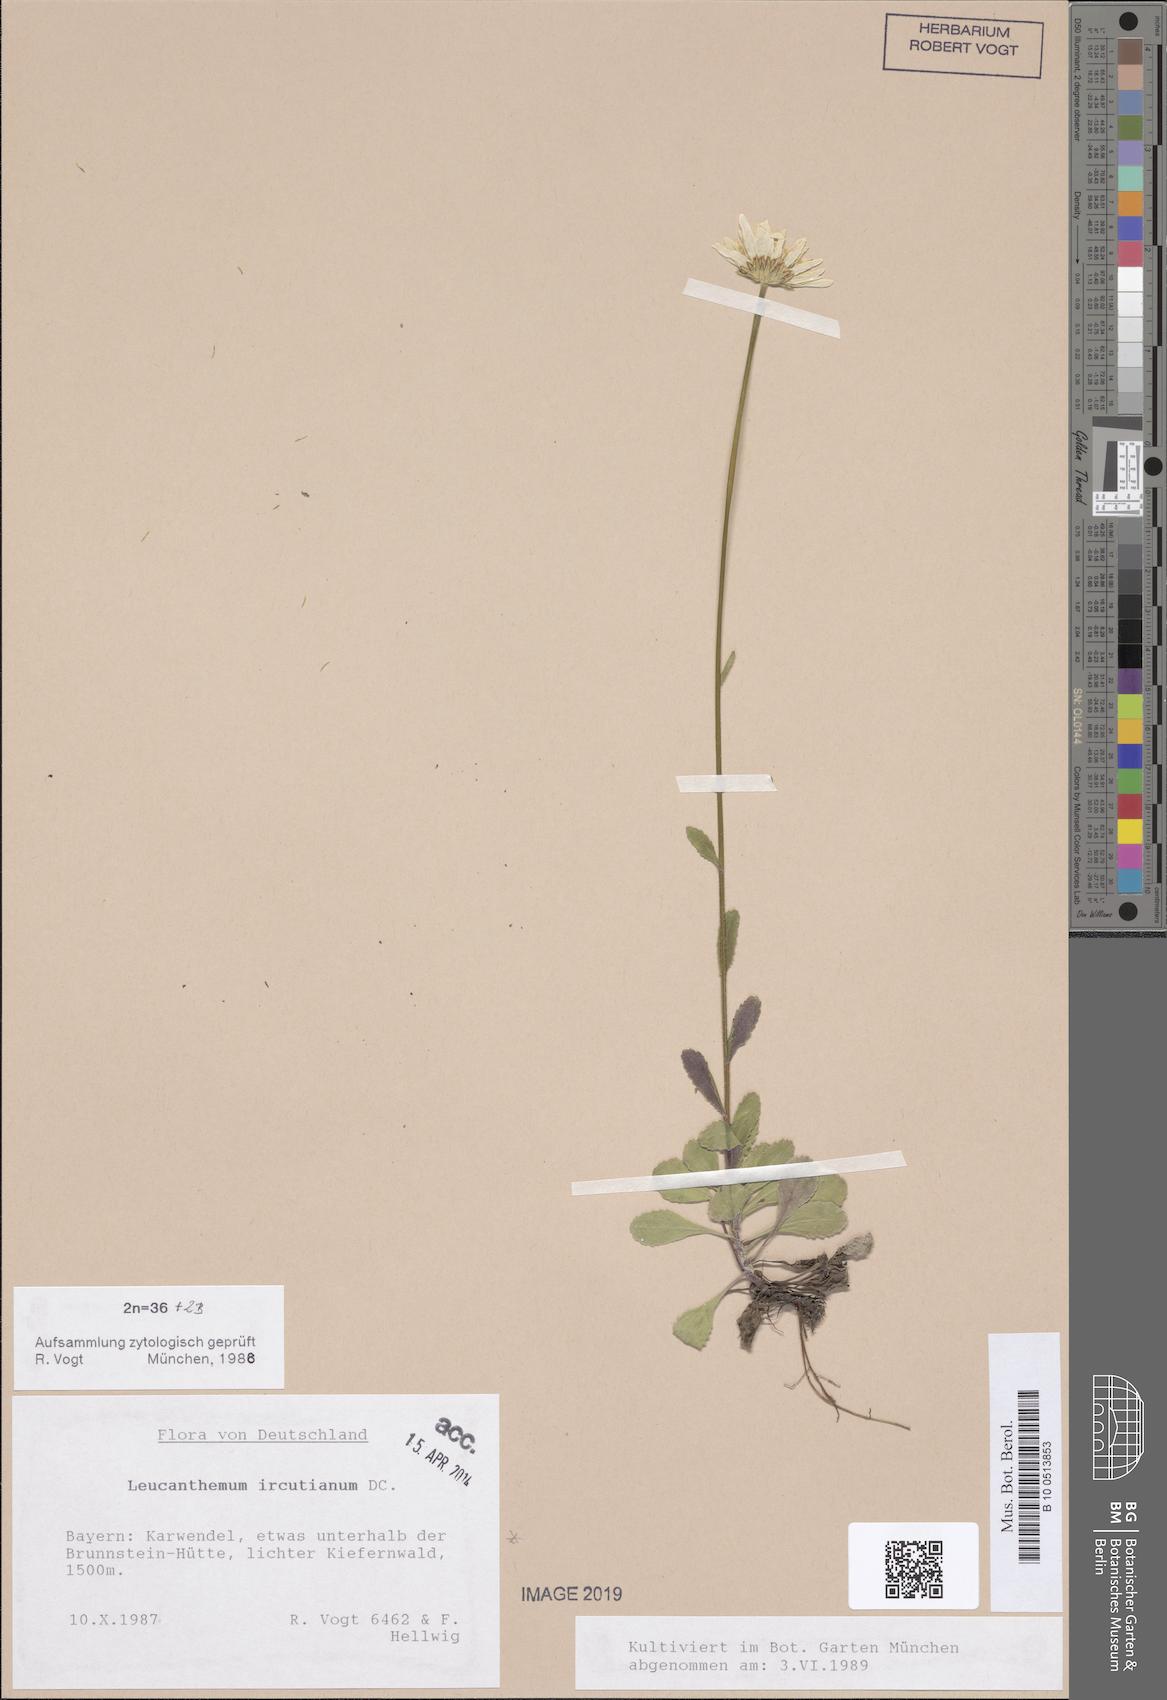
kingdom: Plantae
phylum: Tracheophyta
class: Magnoliopsida
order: Asterales
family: Asteraceae
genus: Leucanthemum
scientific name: Leucanthemum ircutianum
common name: Daisy
